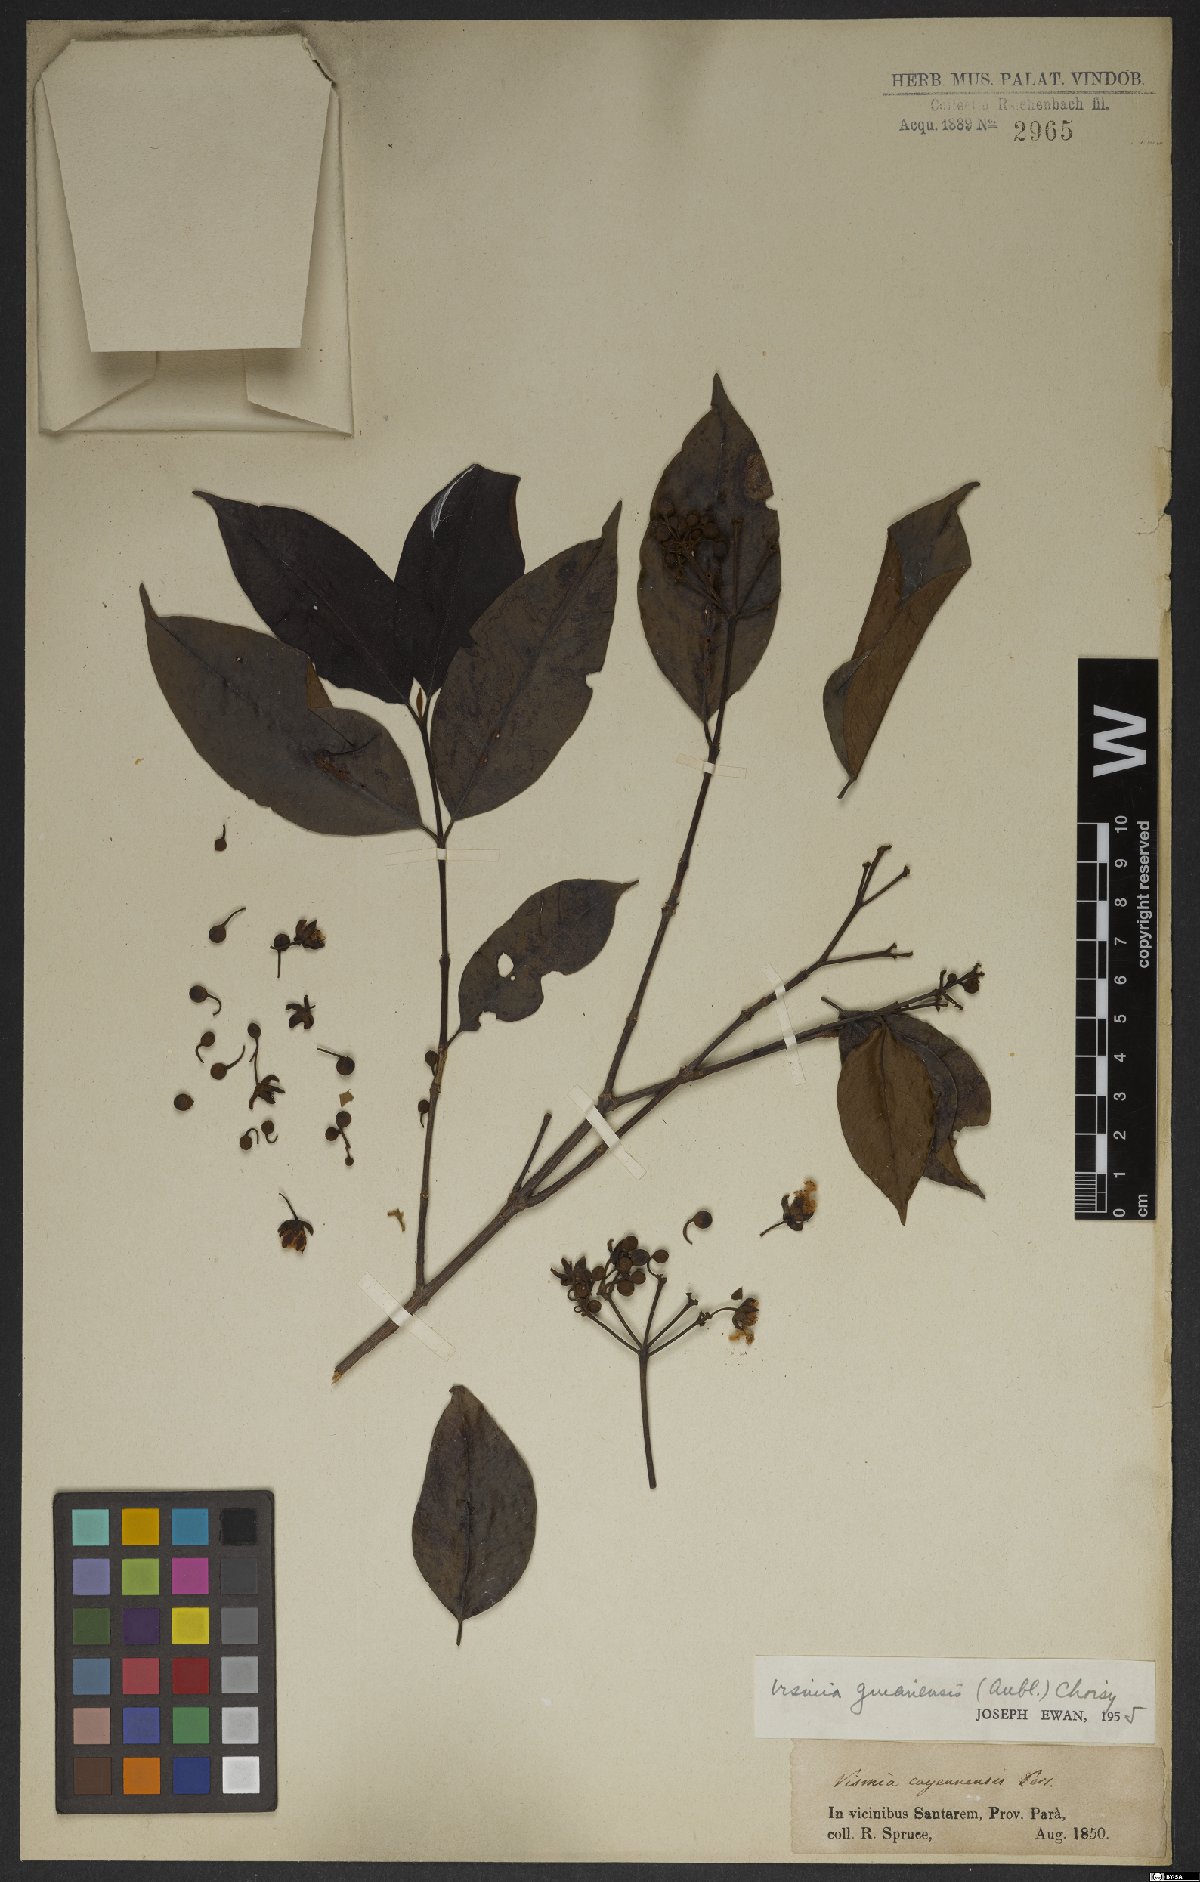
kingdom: Plantae
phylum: Tracheophyta
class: Magnoliopsida
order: Malpighiales
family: Hypericaceae
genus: Vismia
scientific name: Vismia guianensis
